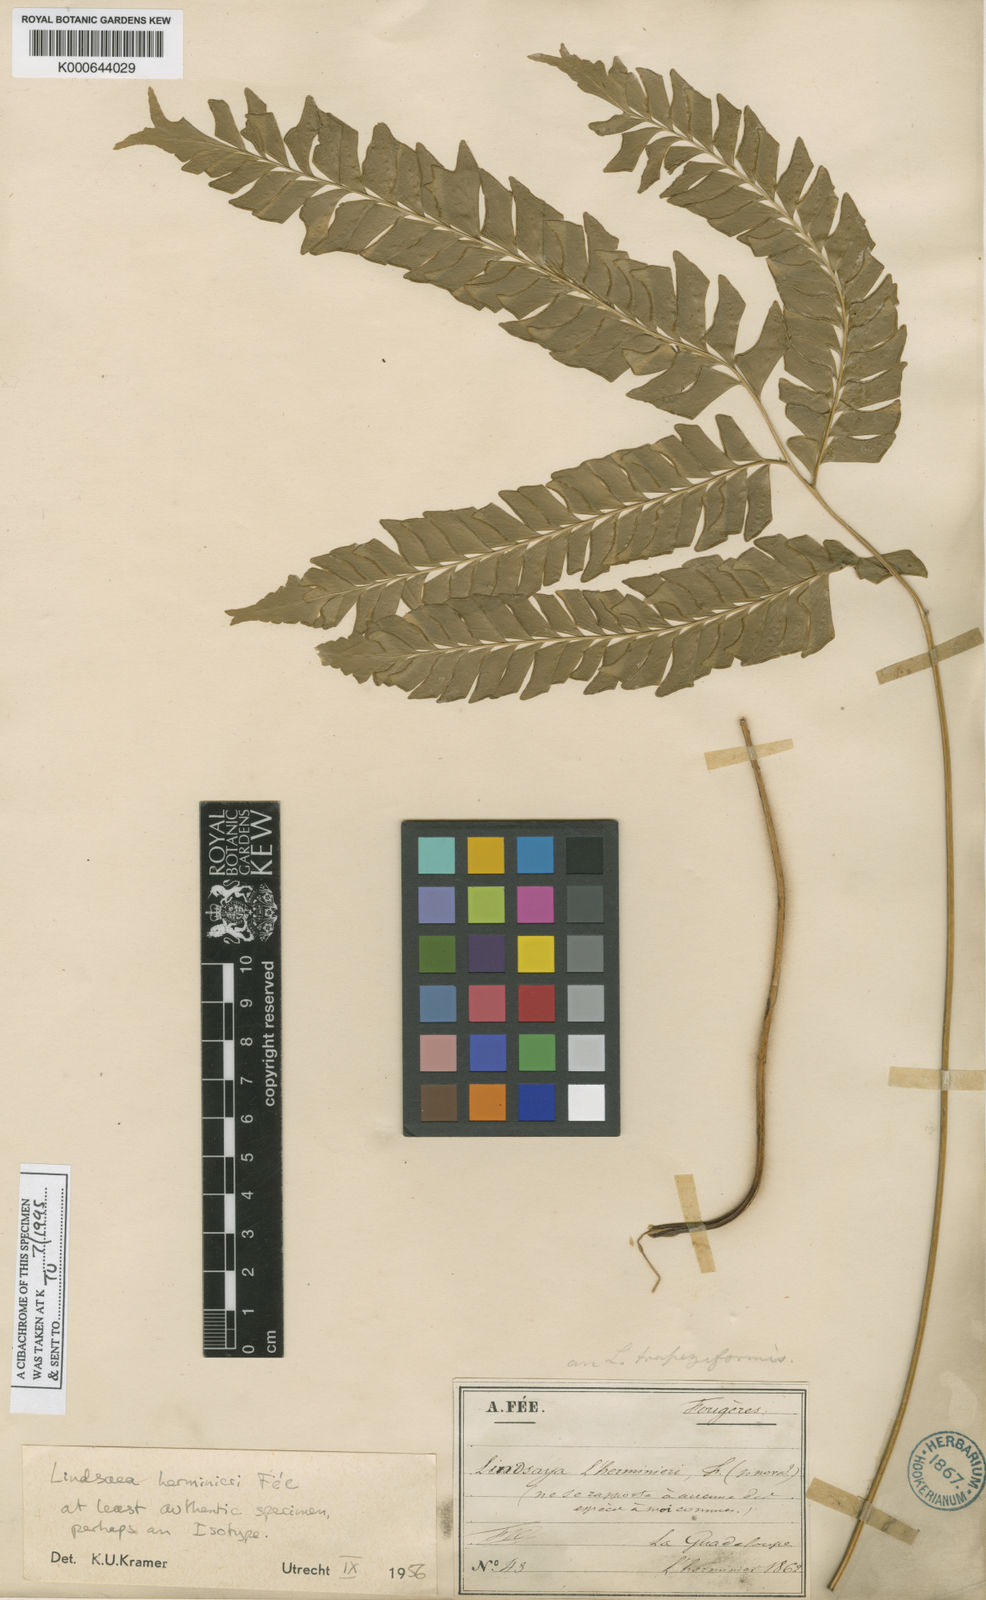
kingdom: Plantae
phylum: Tracheophyta
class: Polypodiopsida
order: Polypodiales
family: Lindsaeaceae
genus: Lindsaea
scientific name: Lindsaea
